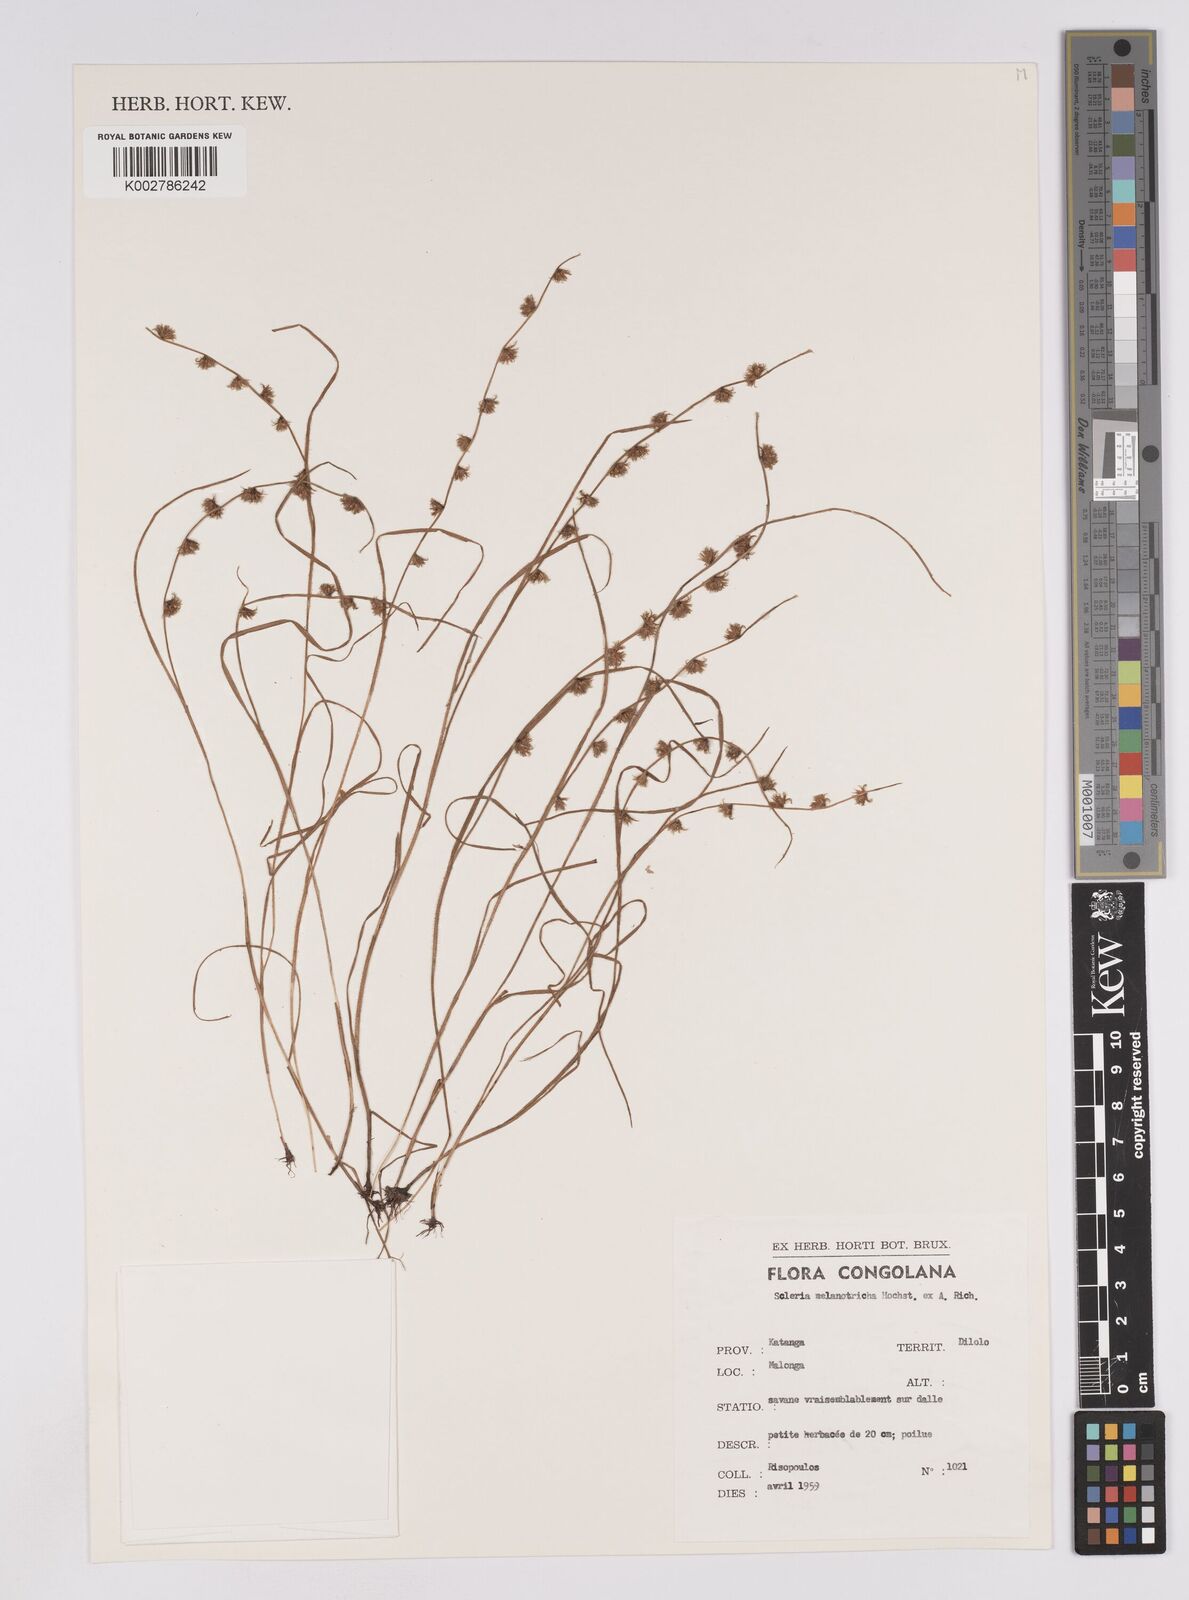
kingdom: Plantae
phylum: Tracheophyta
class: Liliopsida
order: Poales
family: Cyperaceae
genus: Scleria
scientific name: Scleria melanotricha
